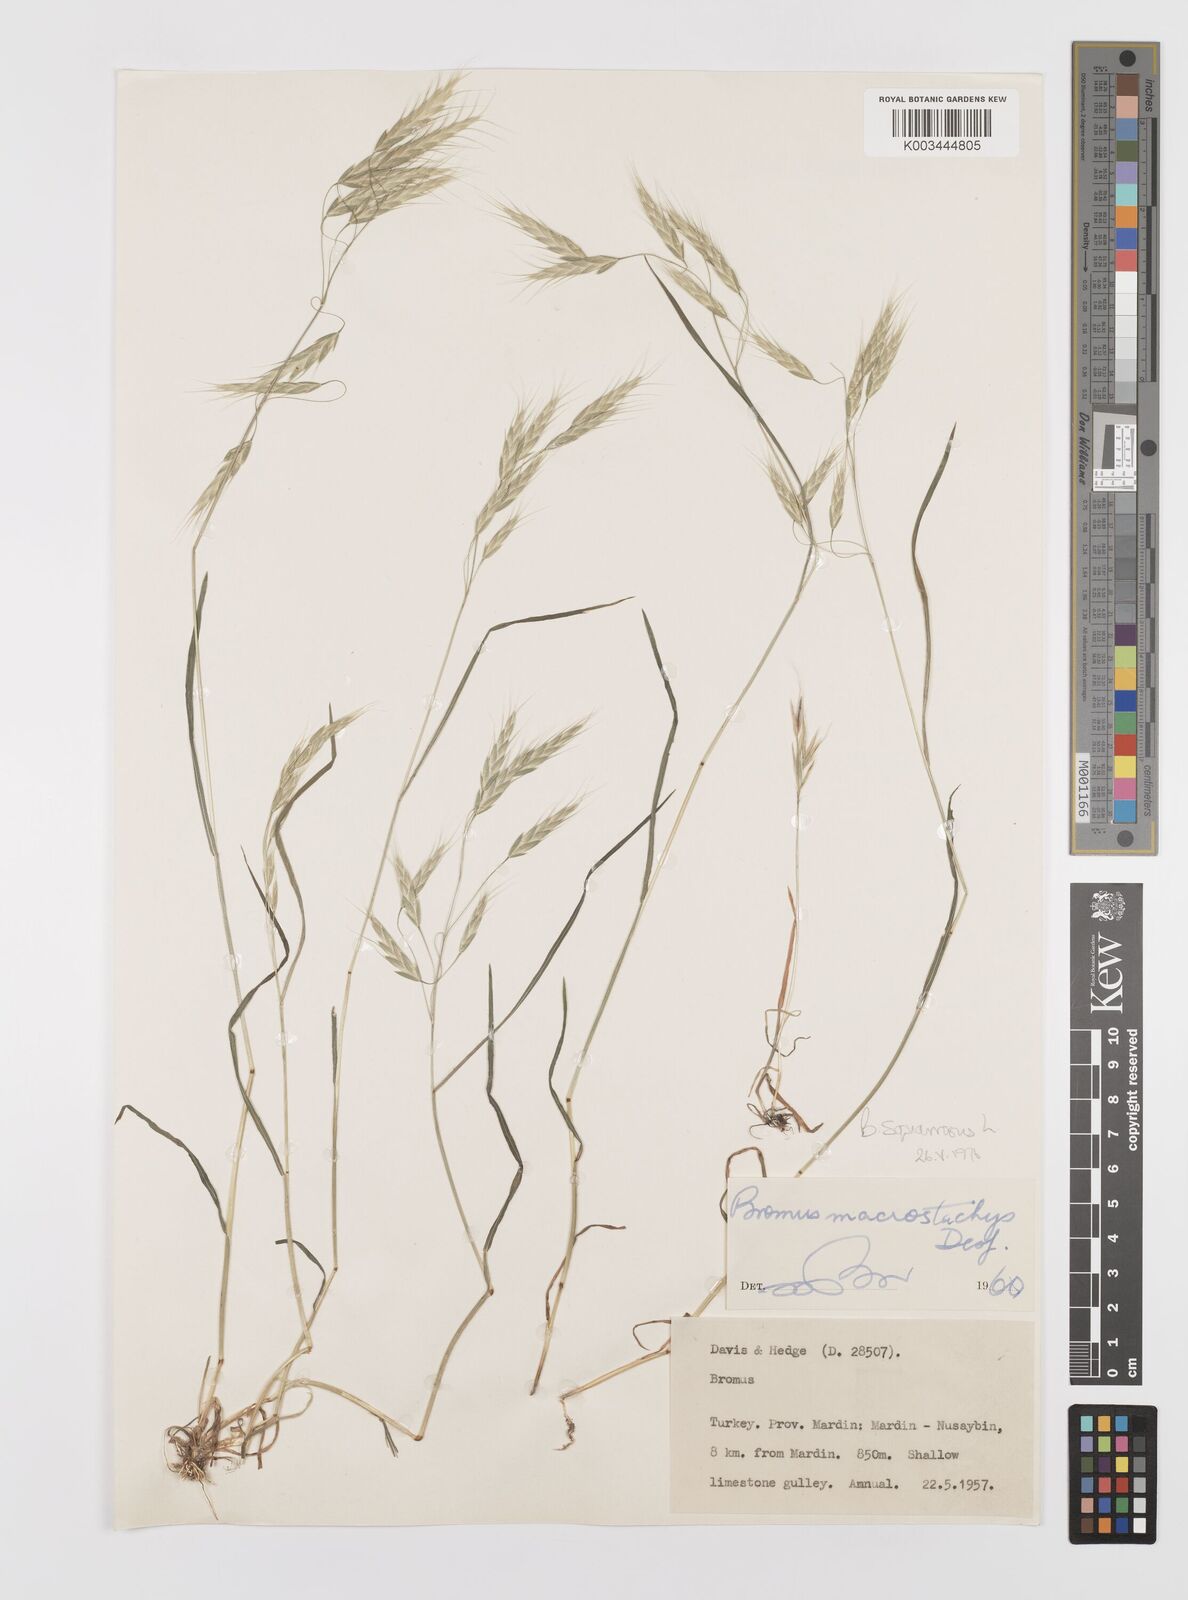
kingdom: Plantae
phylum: Tracheophyta
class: Liliopsida
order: Poales
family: Poaceae
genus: Bromus
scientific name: Bromus squarrosus
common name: Corn brome
